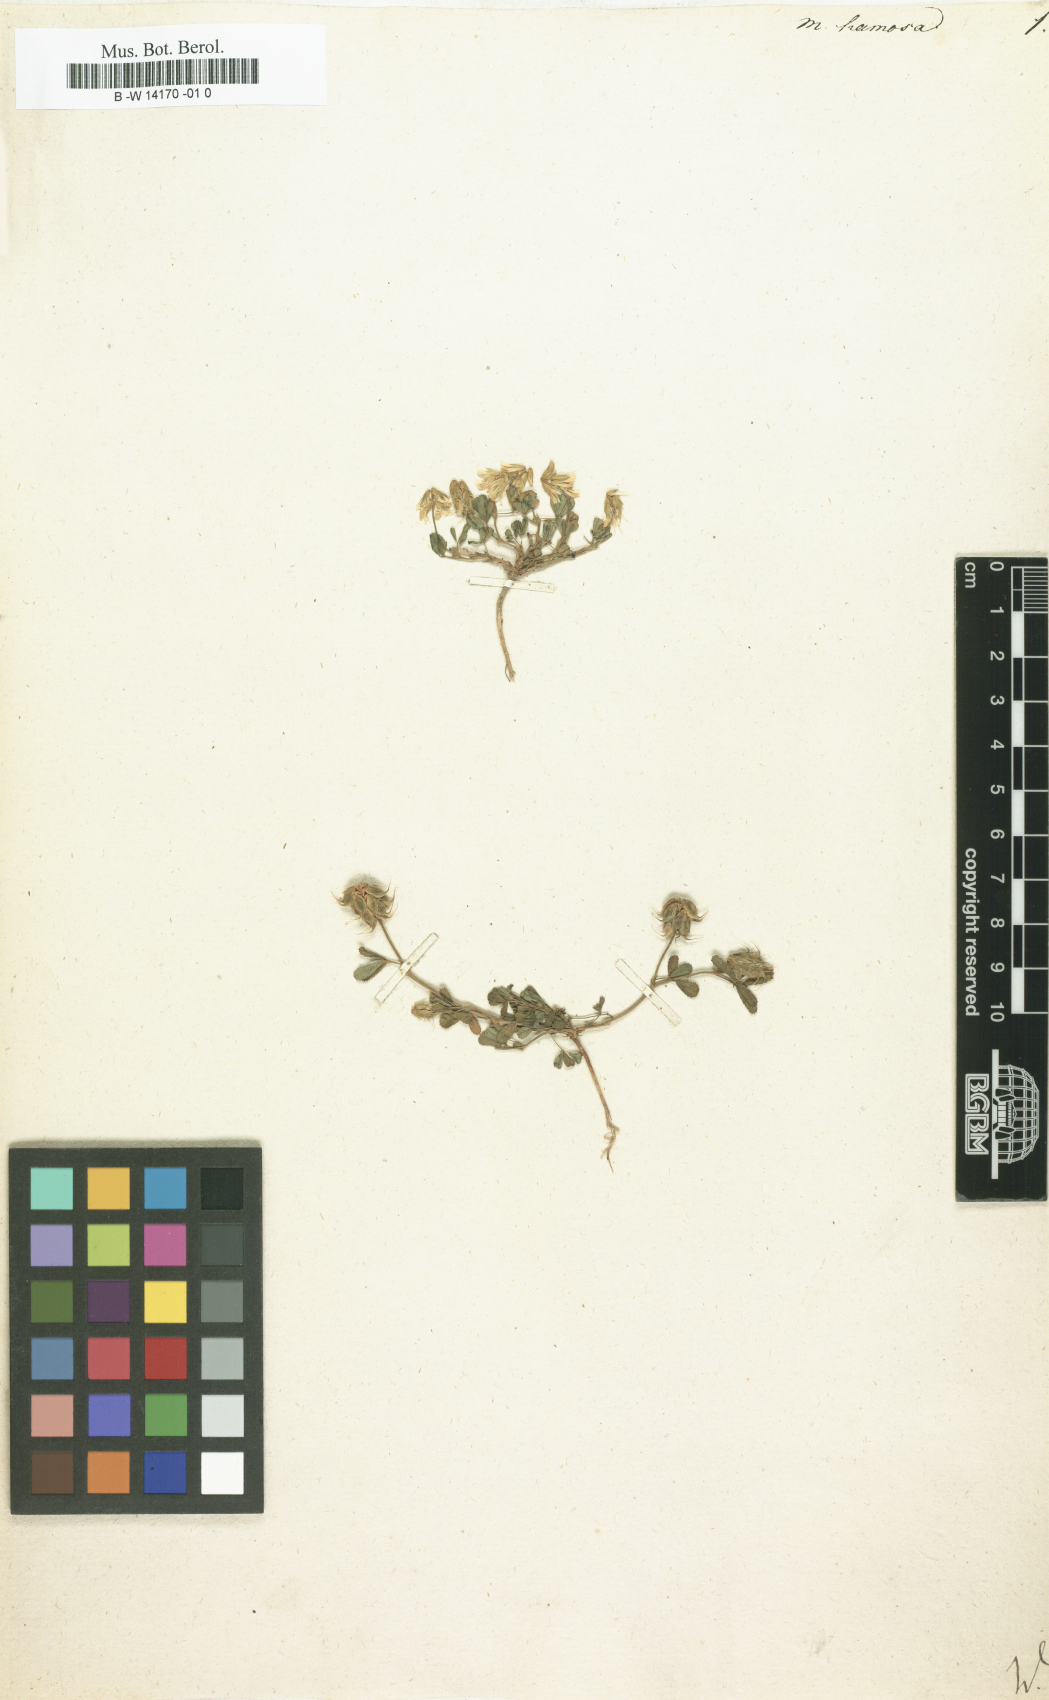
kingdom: Plantae
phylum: Tracheophyta
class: Magnoliopsida
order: Fabales
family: Fabaceae
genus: Trigonella
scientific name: Trigonella spicata
